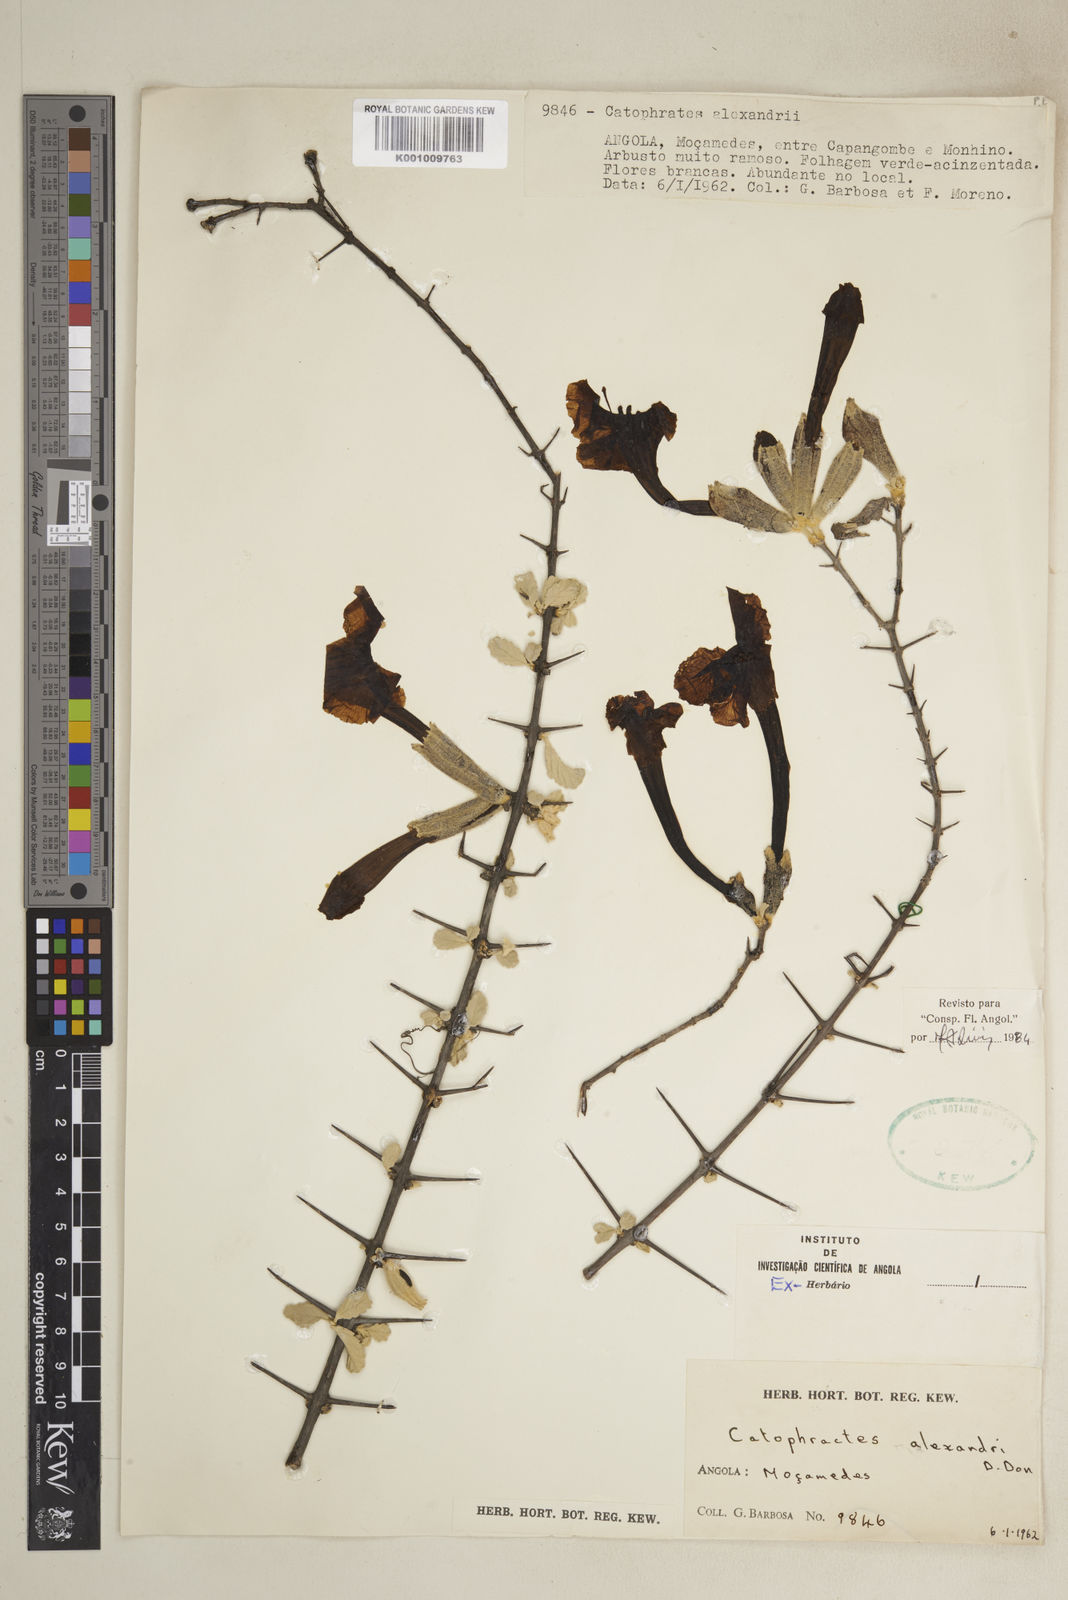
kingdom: Plantae
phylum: Tracheophyta
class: Magnoliopsida
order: Lamiales
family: Bignoniaceae
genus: Catophractes
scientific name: Catophractes alexandri
